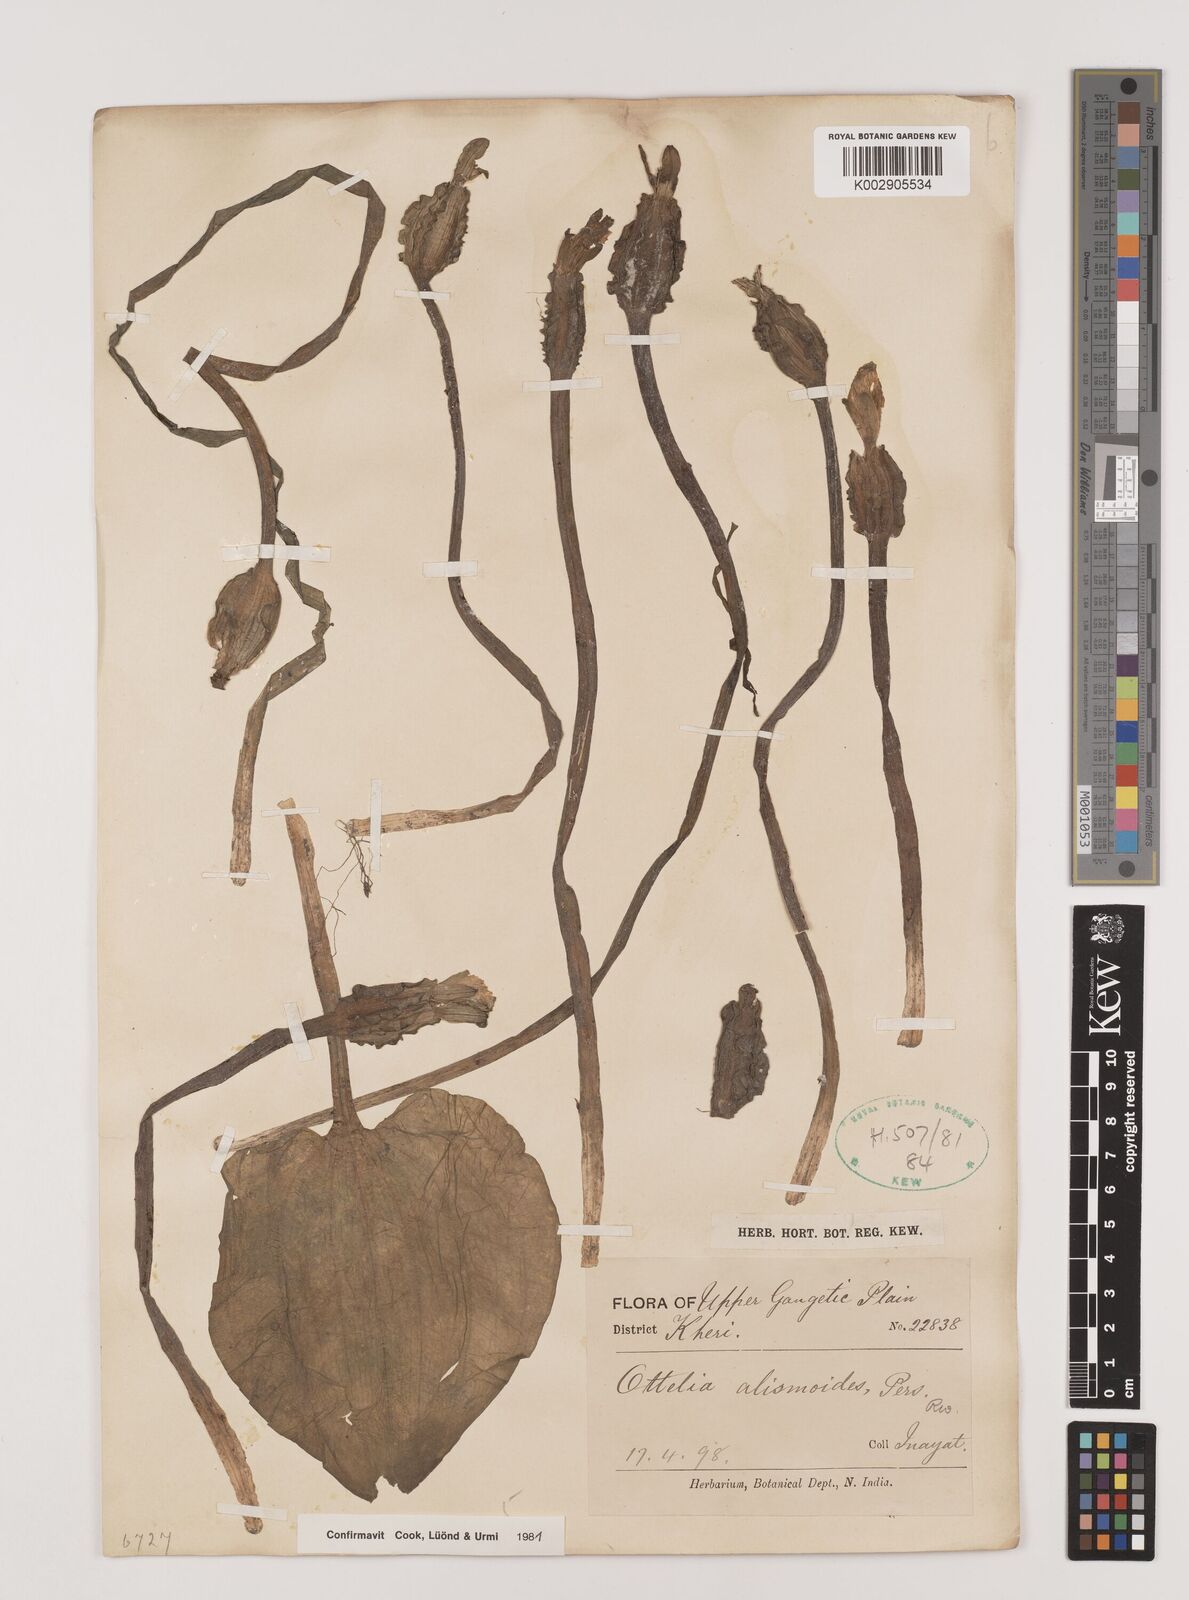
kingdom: Plantae
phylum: Tracheophyta
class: Liliopsida
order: Alismatales
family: Hydrocharitaceae
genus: Ottelia
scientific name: Ottelia alismoides
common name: Duck-lettuce
